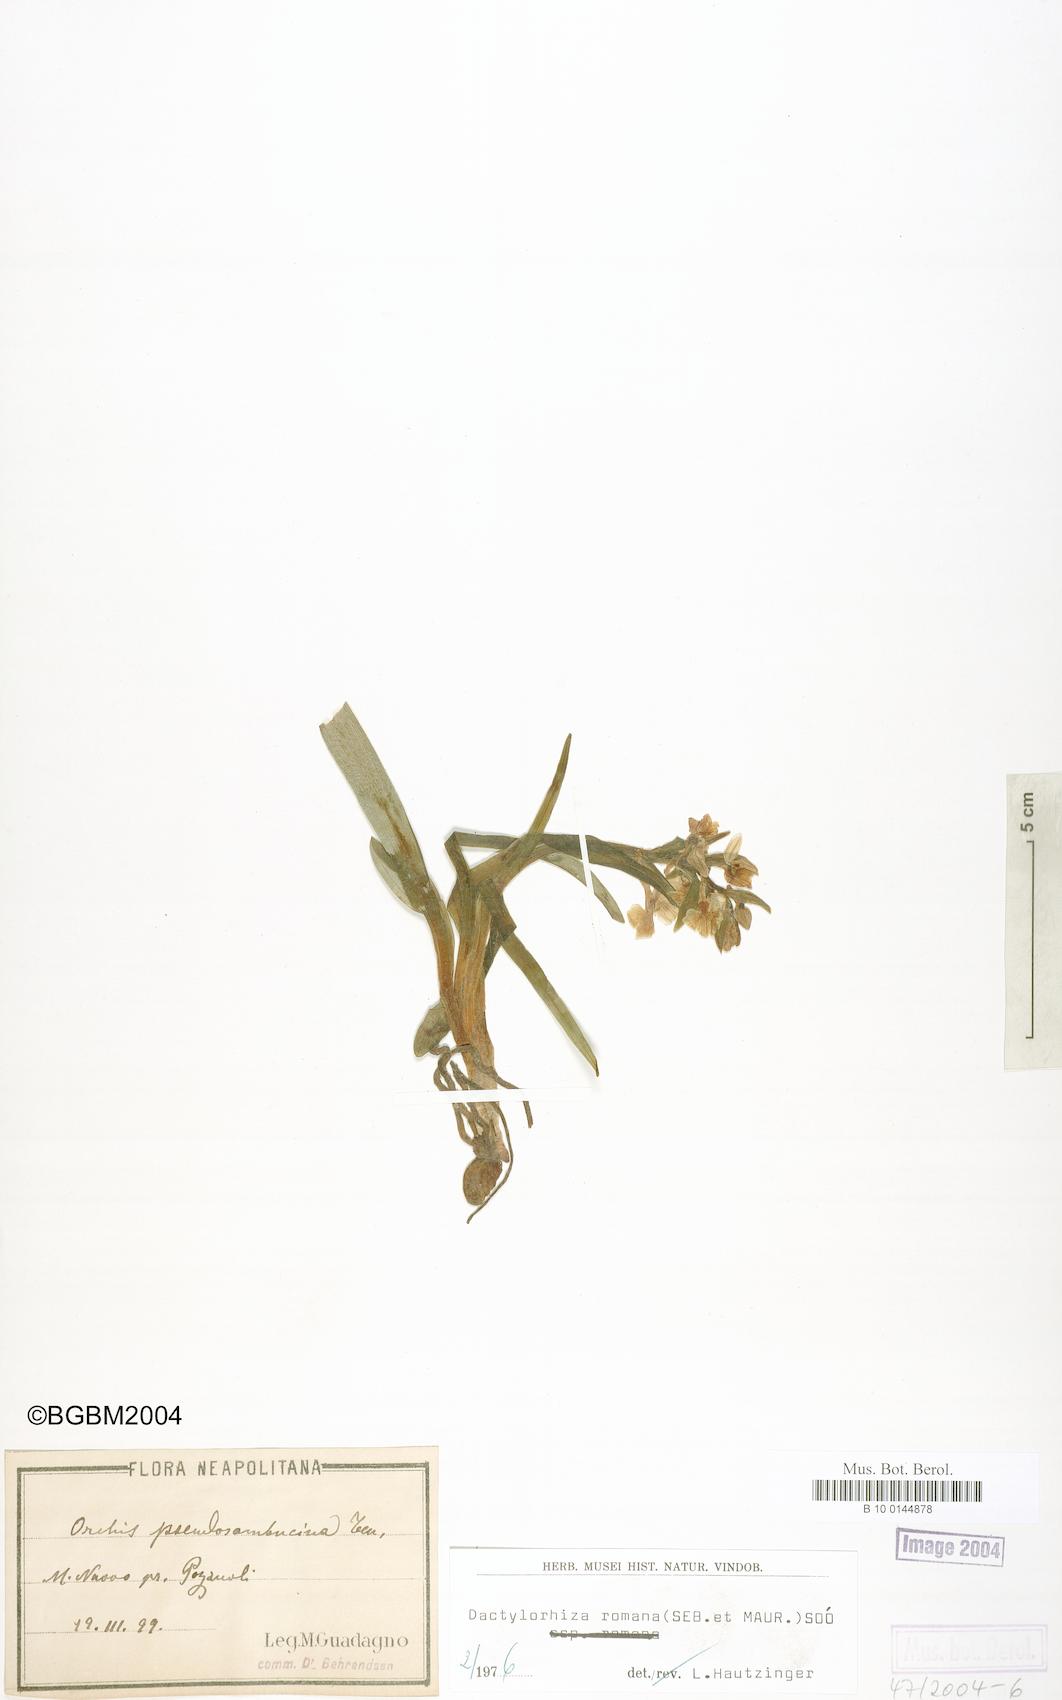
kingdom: Plantae
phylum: Tracheophyta
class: Liliopsida
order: Asparagales
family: Orchidaceae
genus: Dactylorhiza
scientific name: Dactylorhiza romana
